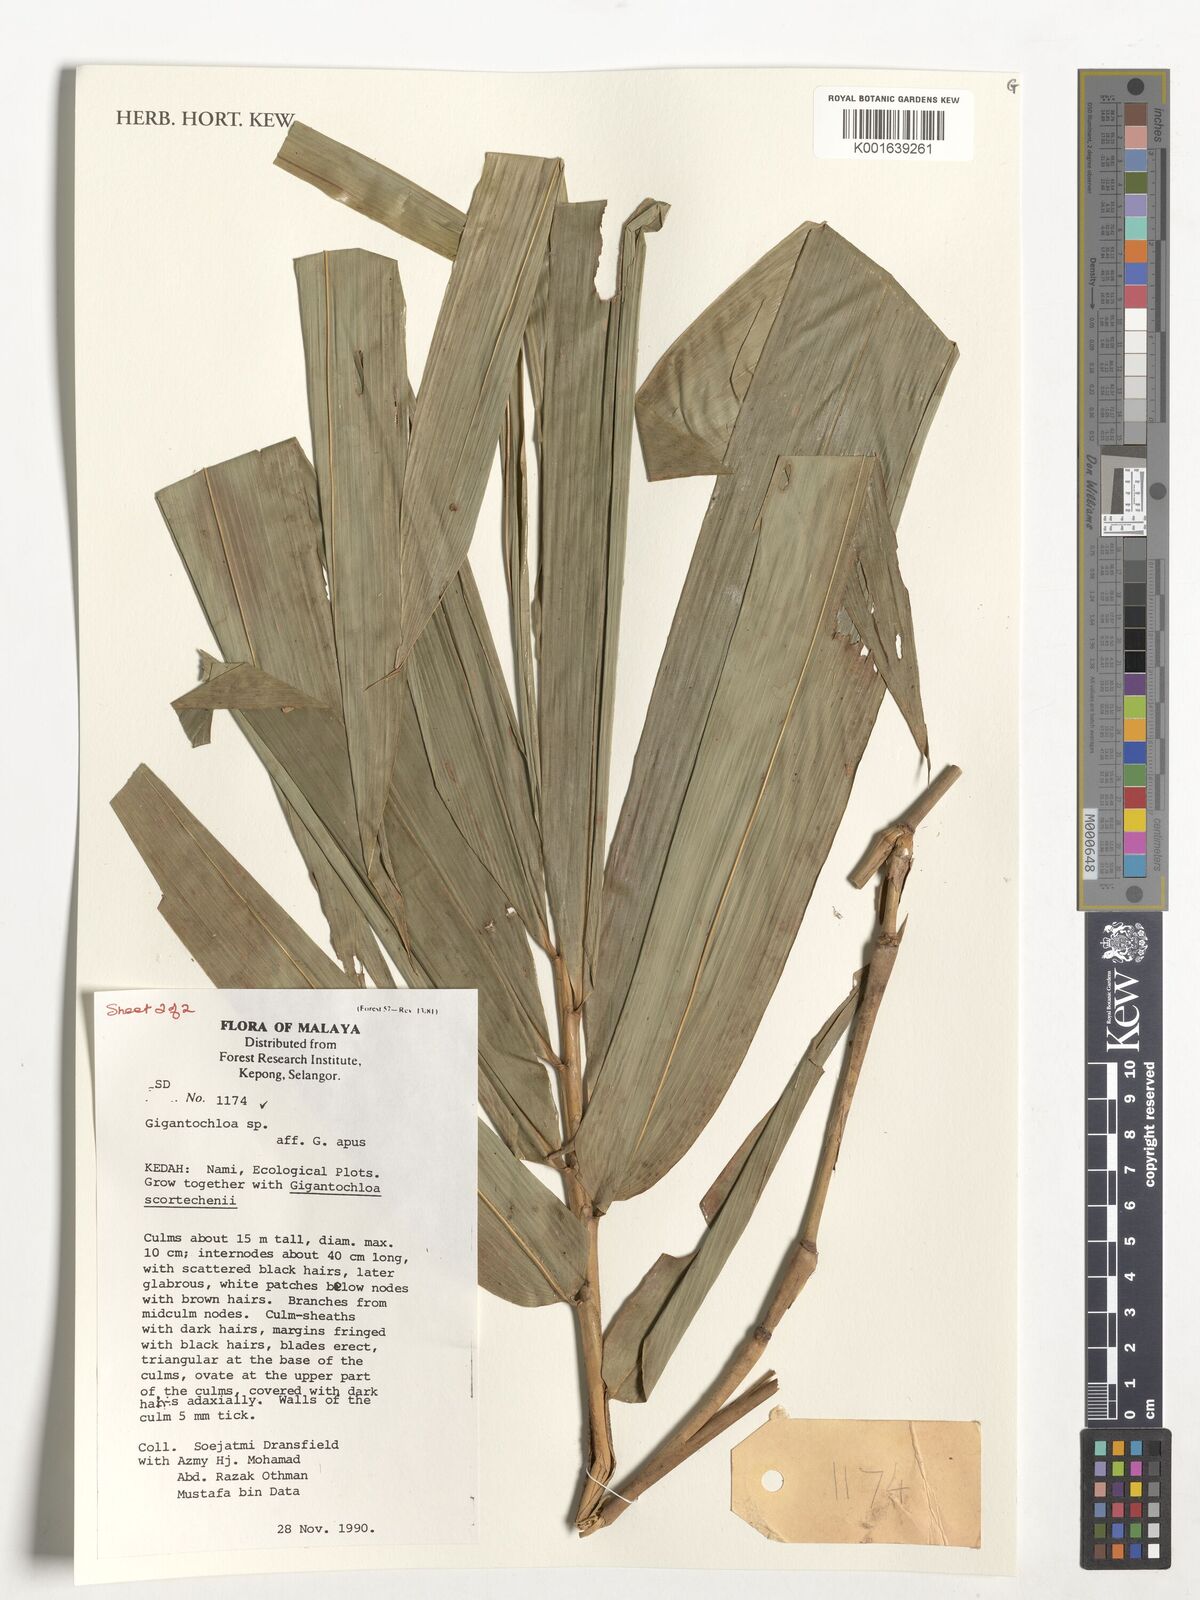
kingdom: Plantae
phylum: Tracheophyta
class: Liliopsida
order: Poales
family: Poaceae
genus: Gigantochloa
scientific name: Gigantochloa apus
